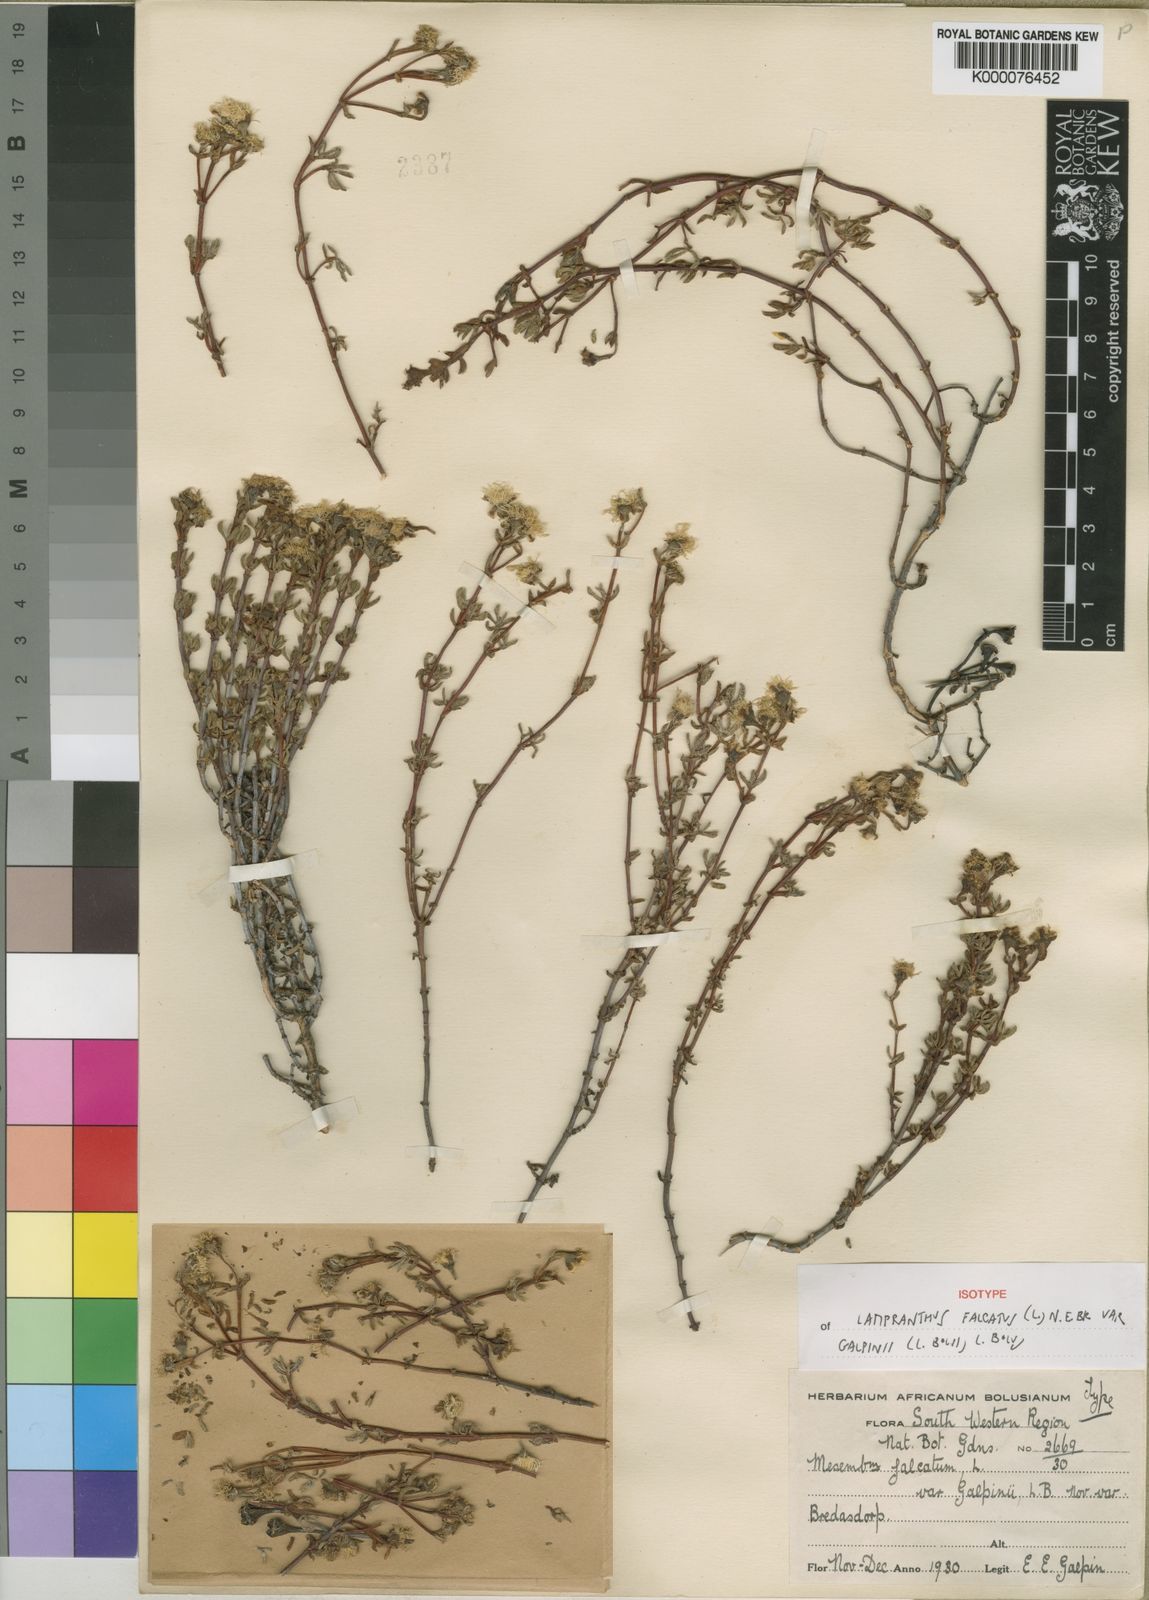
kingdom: Plantae
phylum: Tracheophyta
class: Magnoliopsida
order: Caryophyllales
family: Aizoaceae
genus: Lampranthus
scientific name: Lampranthus falcatus
